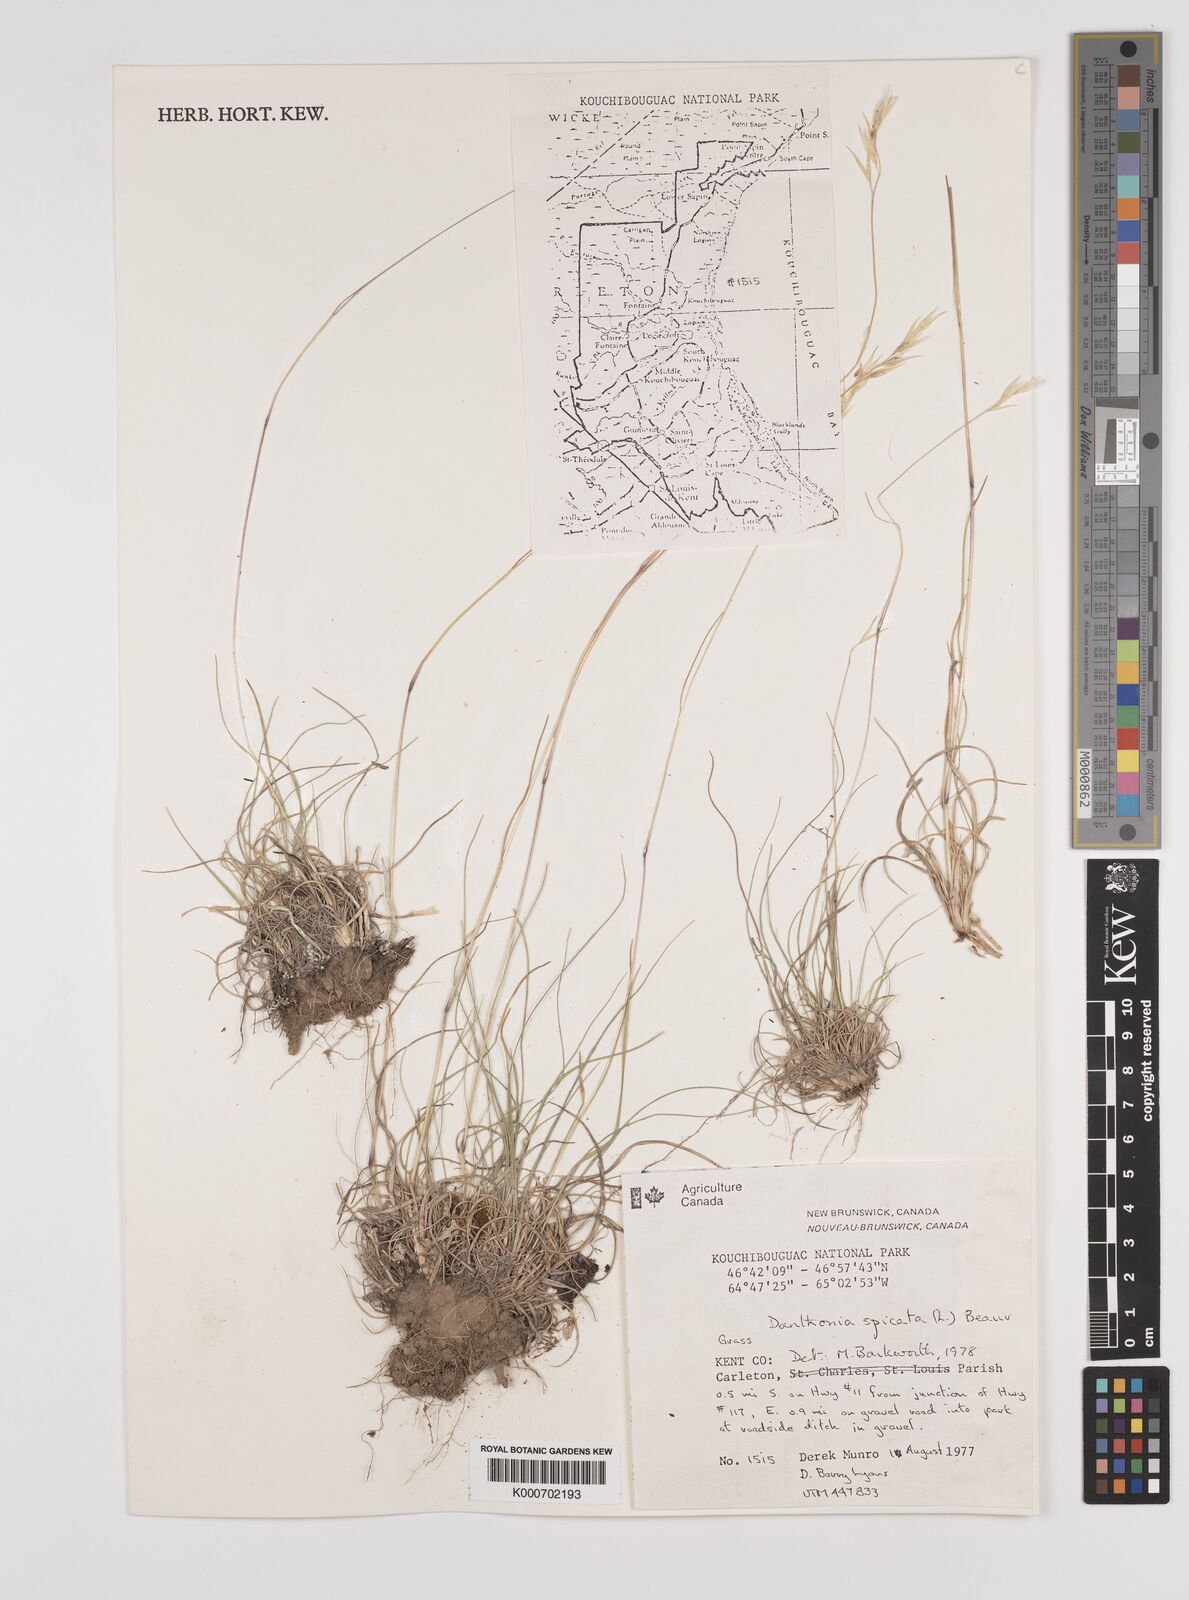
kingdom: Plantae
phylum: Tracheophyta
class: Liliopsida
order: Poales
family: Poaceae
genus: Danthonia
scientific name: Danthonia spicata
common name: Common wild oatgrass
